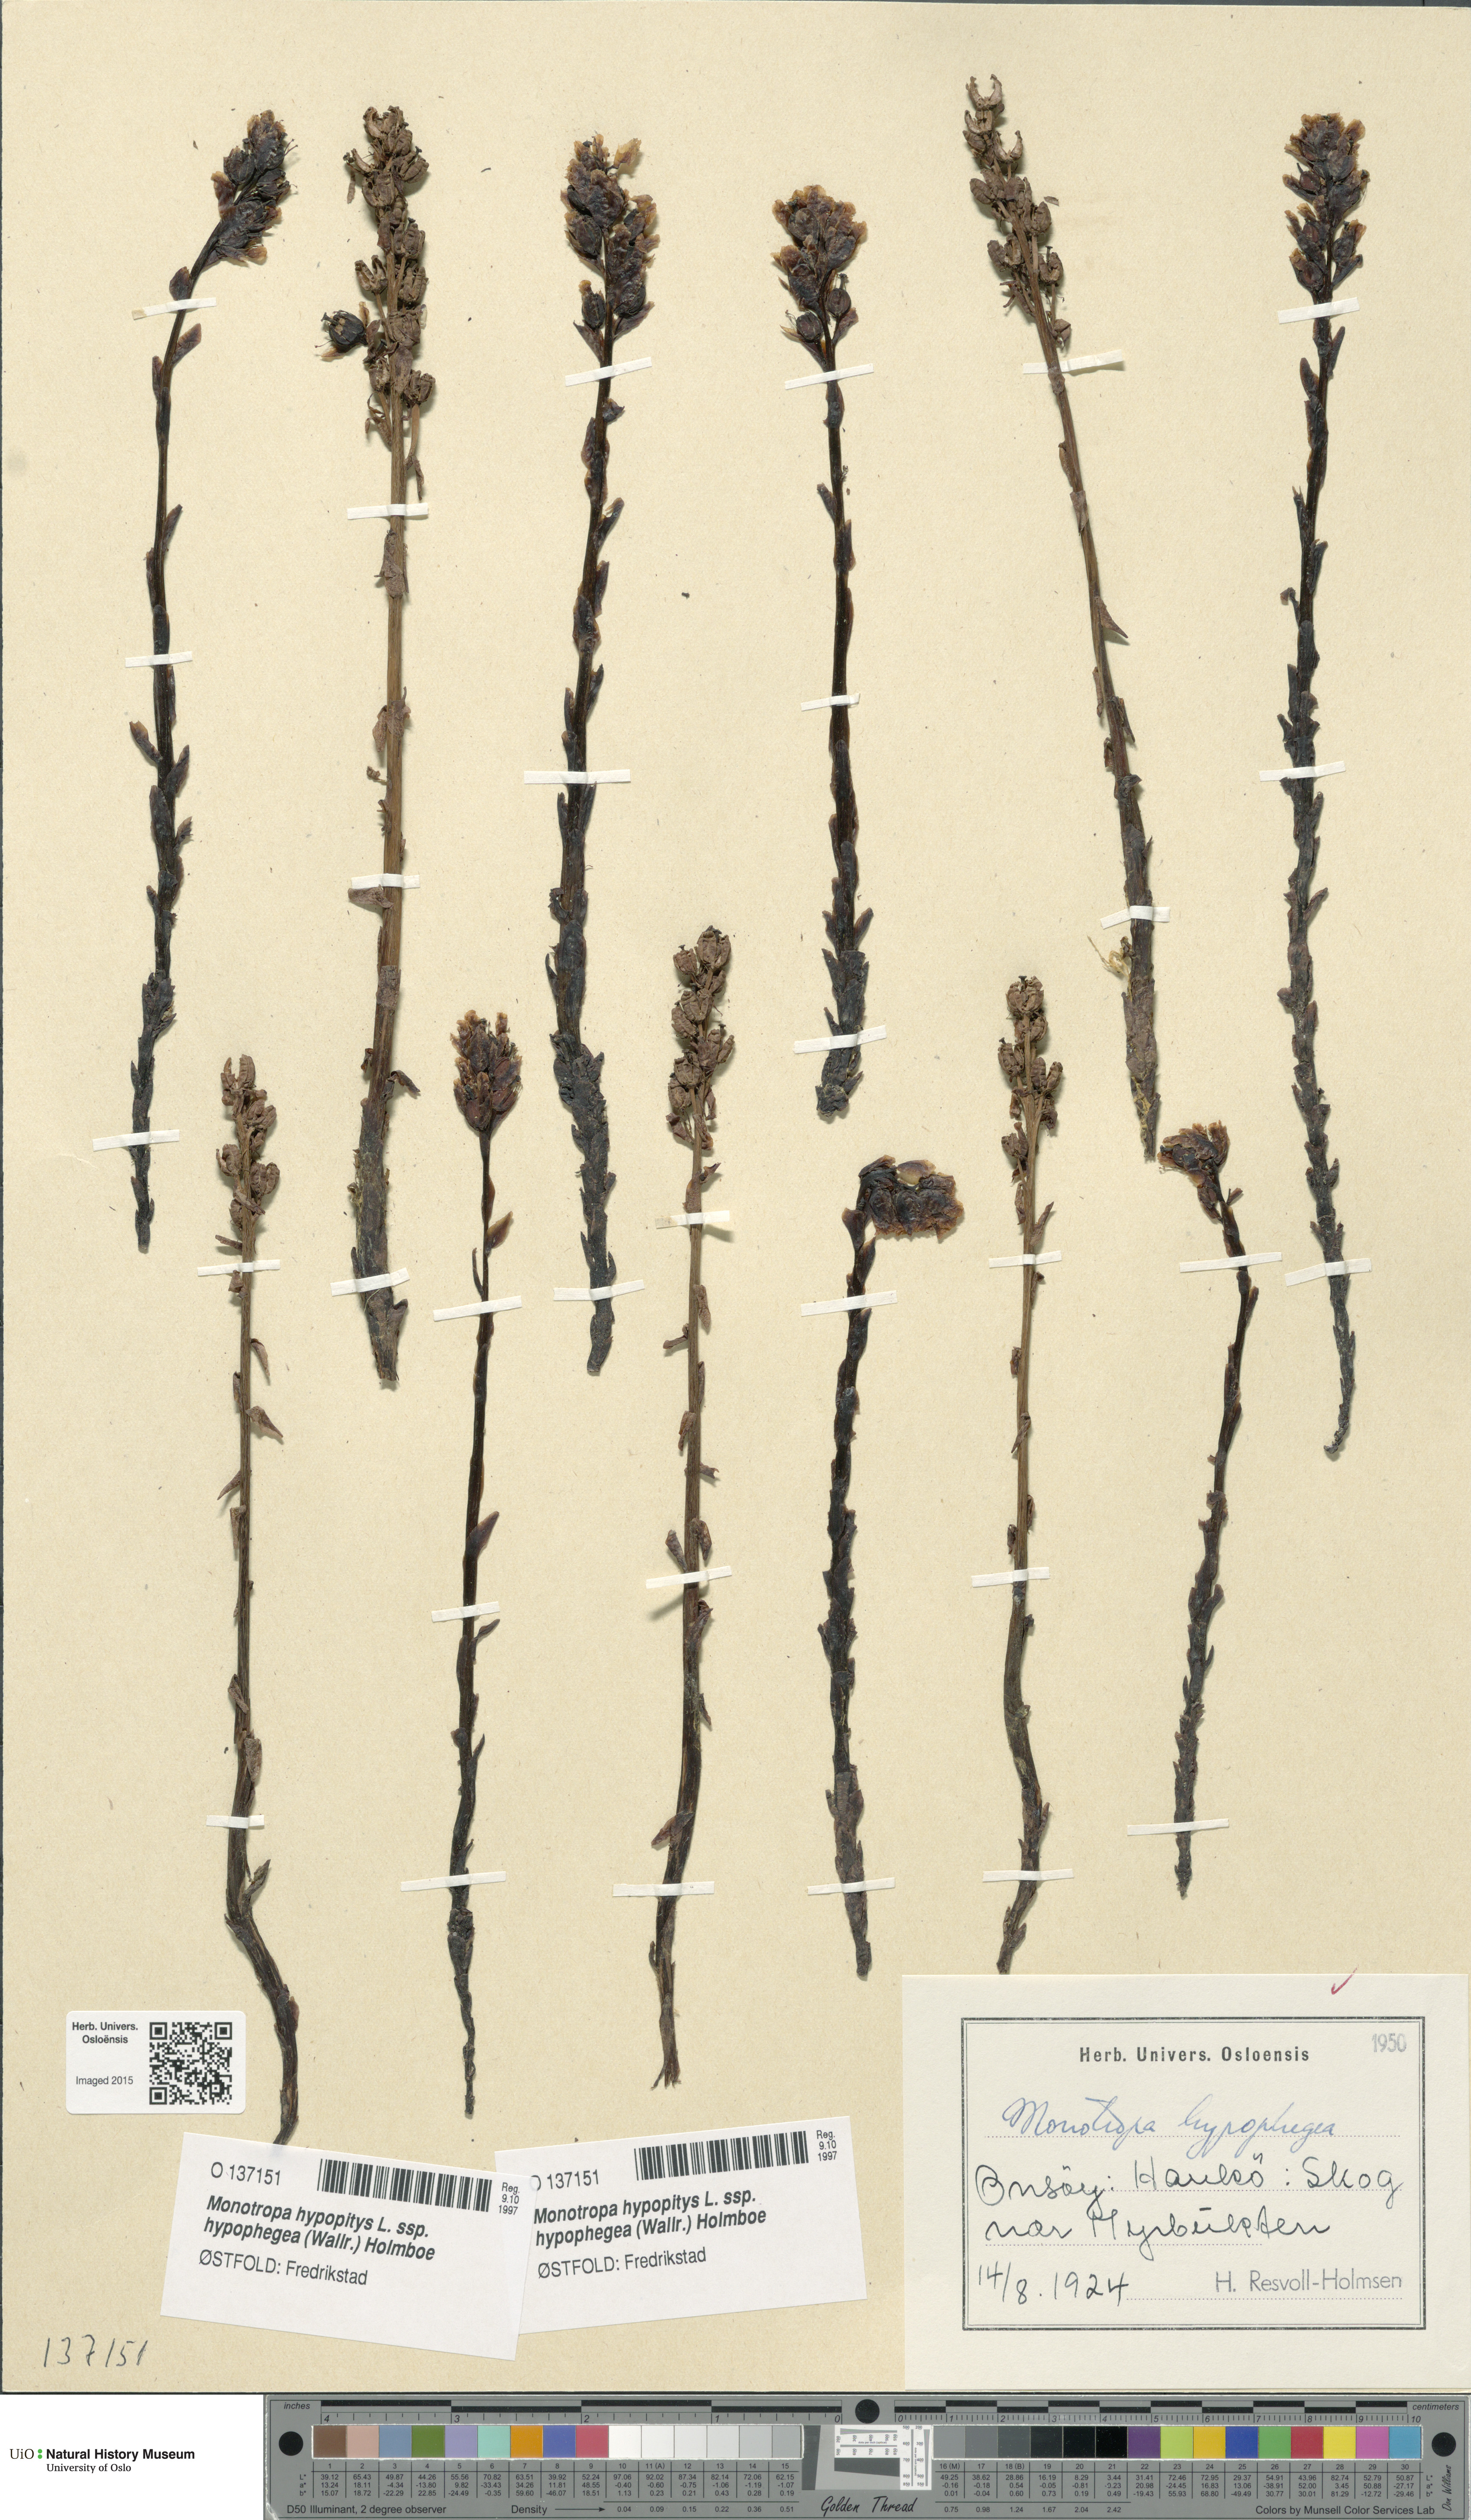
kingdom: Plantae
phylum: Tracheophyta
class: Magnoliopsida
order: Ericales
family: Ericaceae
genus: Hypopitys
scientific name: Hypopitys hypophegea
